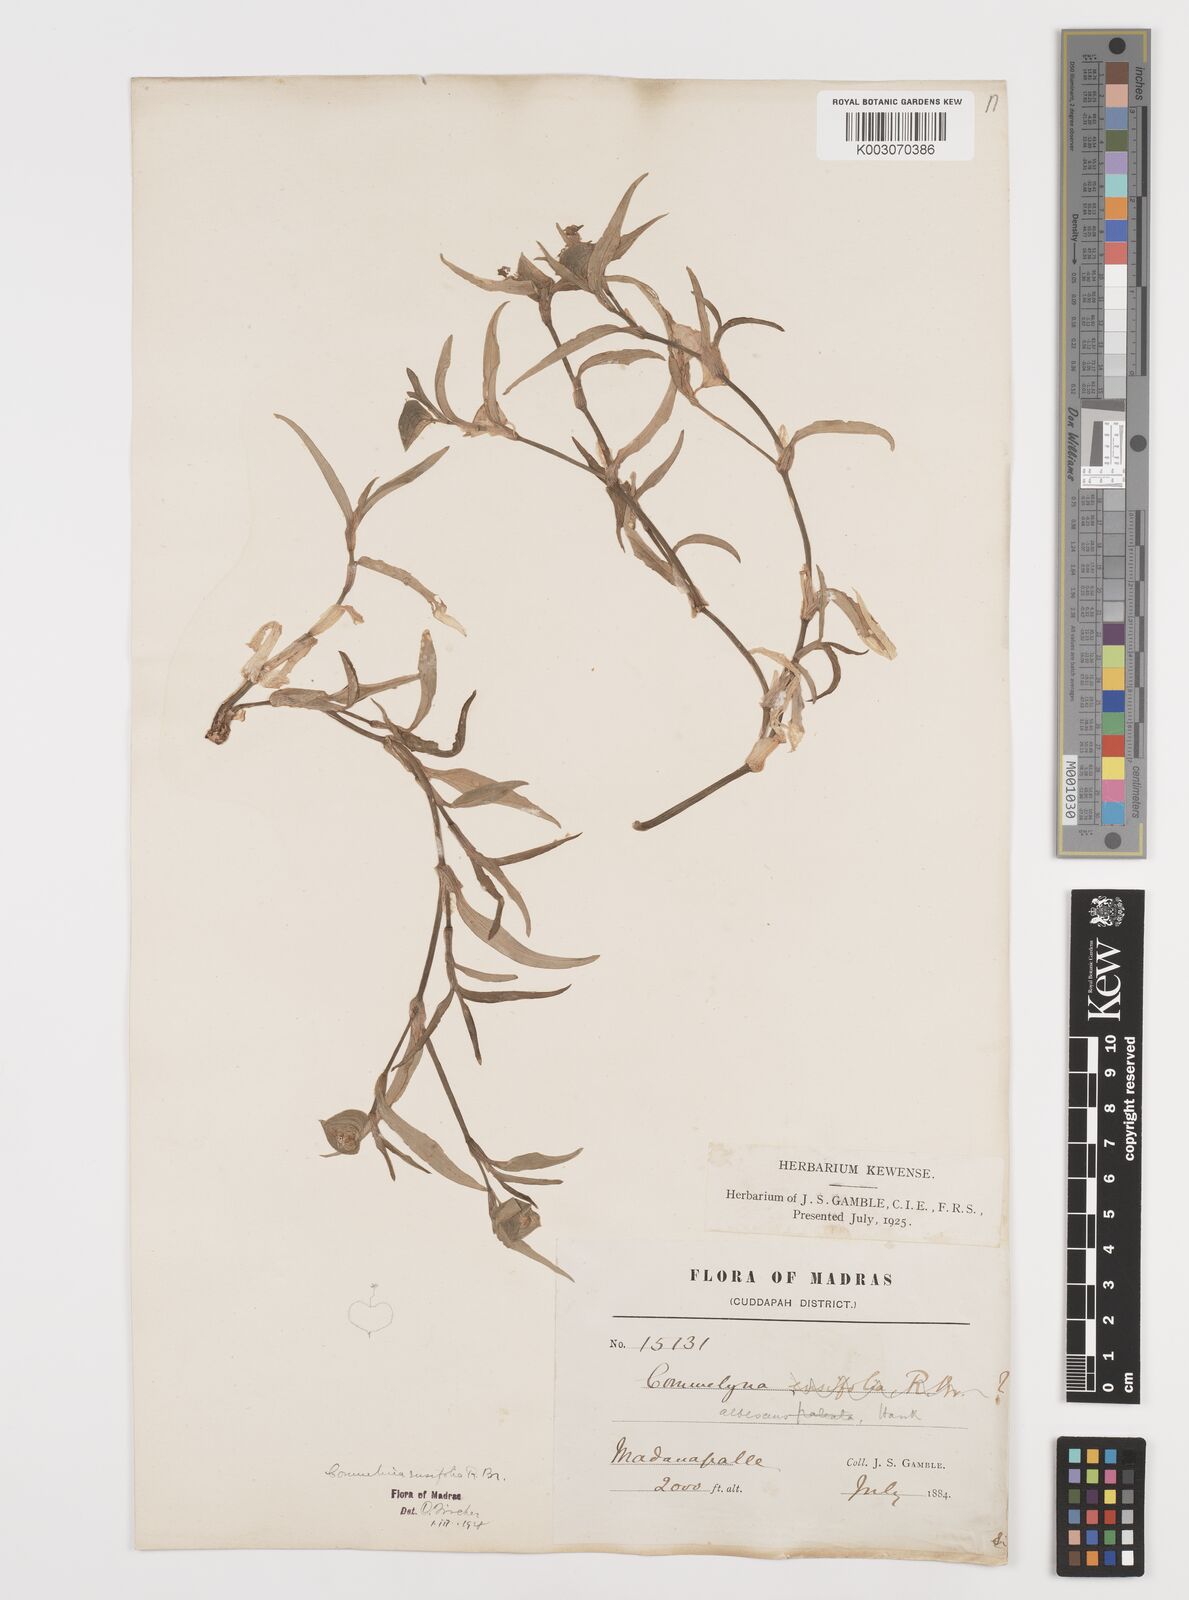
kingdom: Plantae
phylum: Tracheophyta
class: Liliopsida
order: Commelinales
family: Commelinaceae
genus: Commelina
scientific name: Commelina ensifolia
